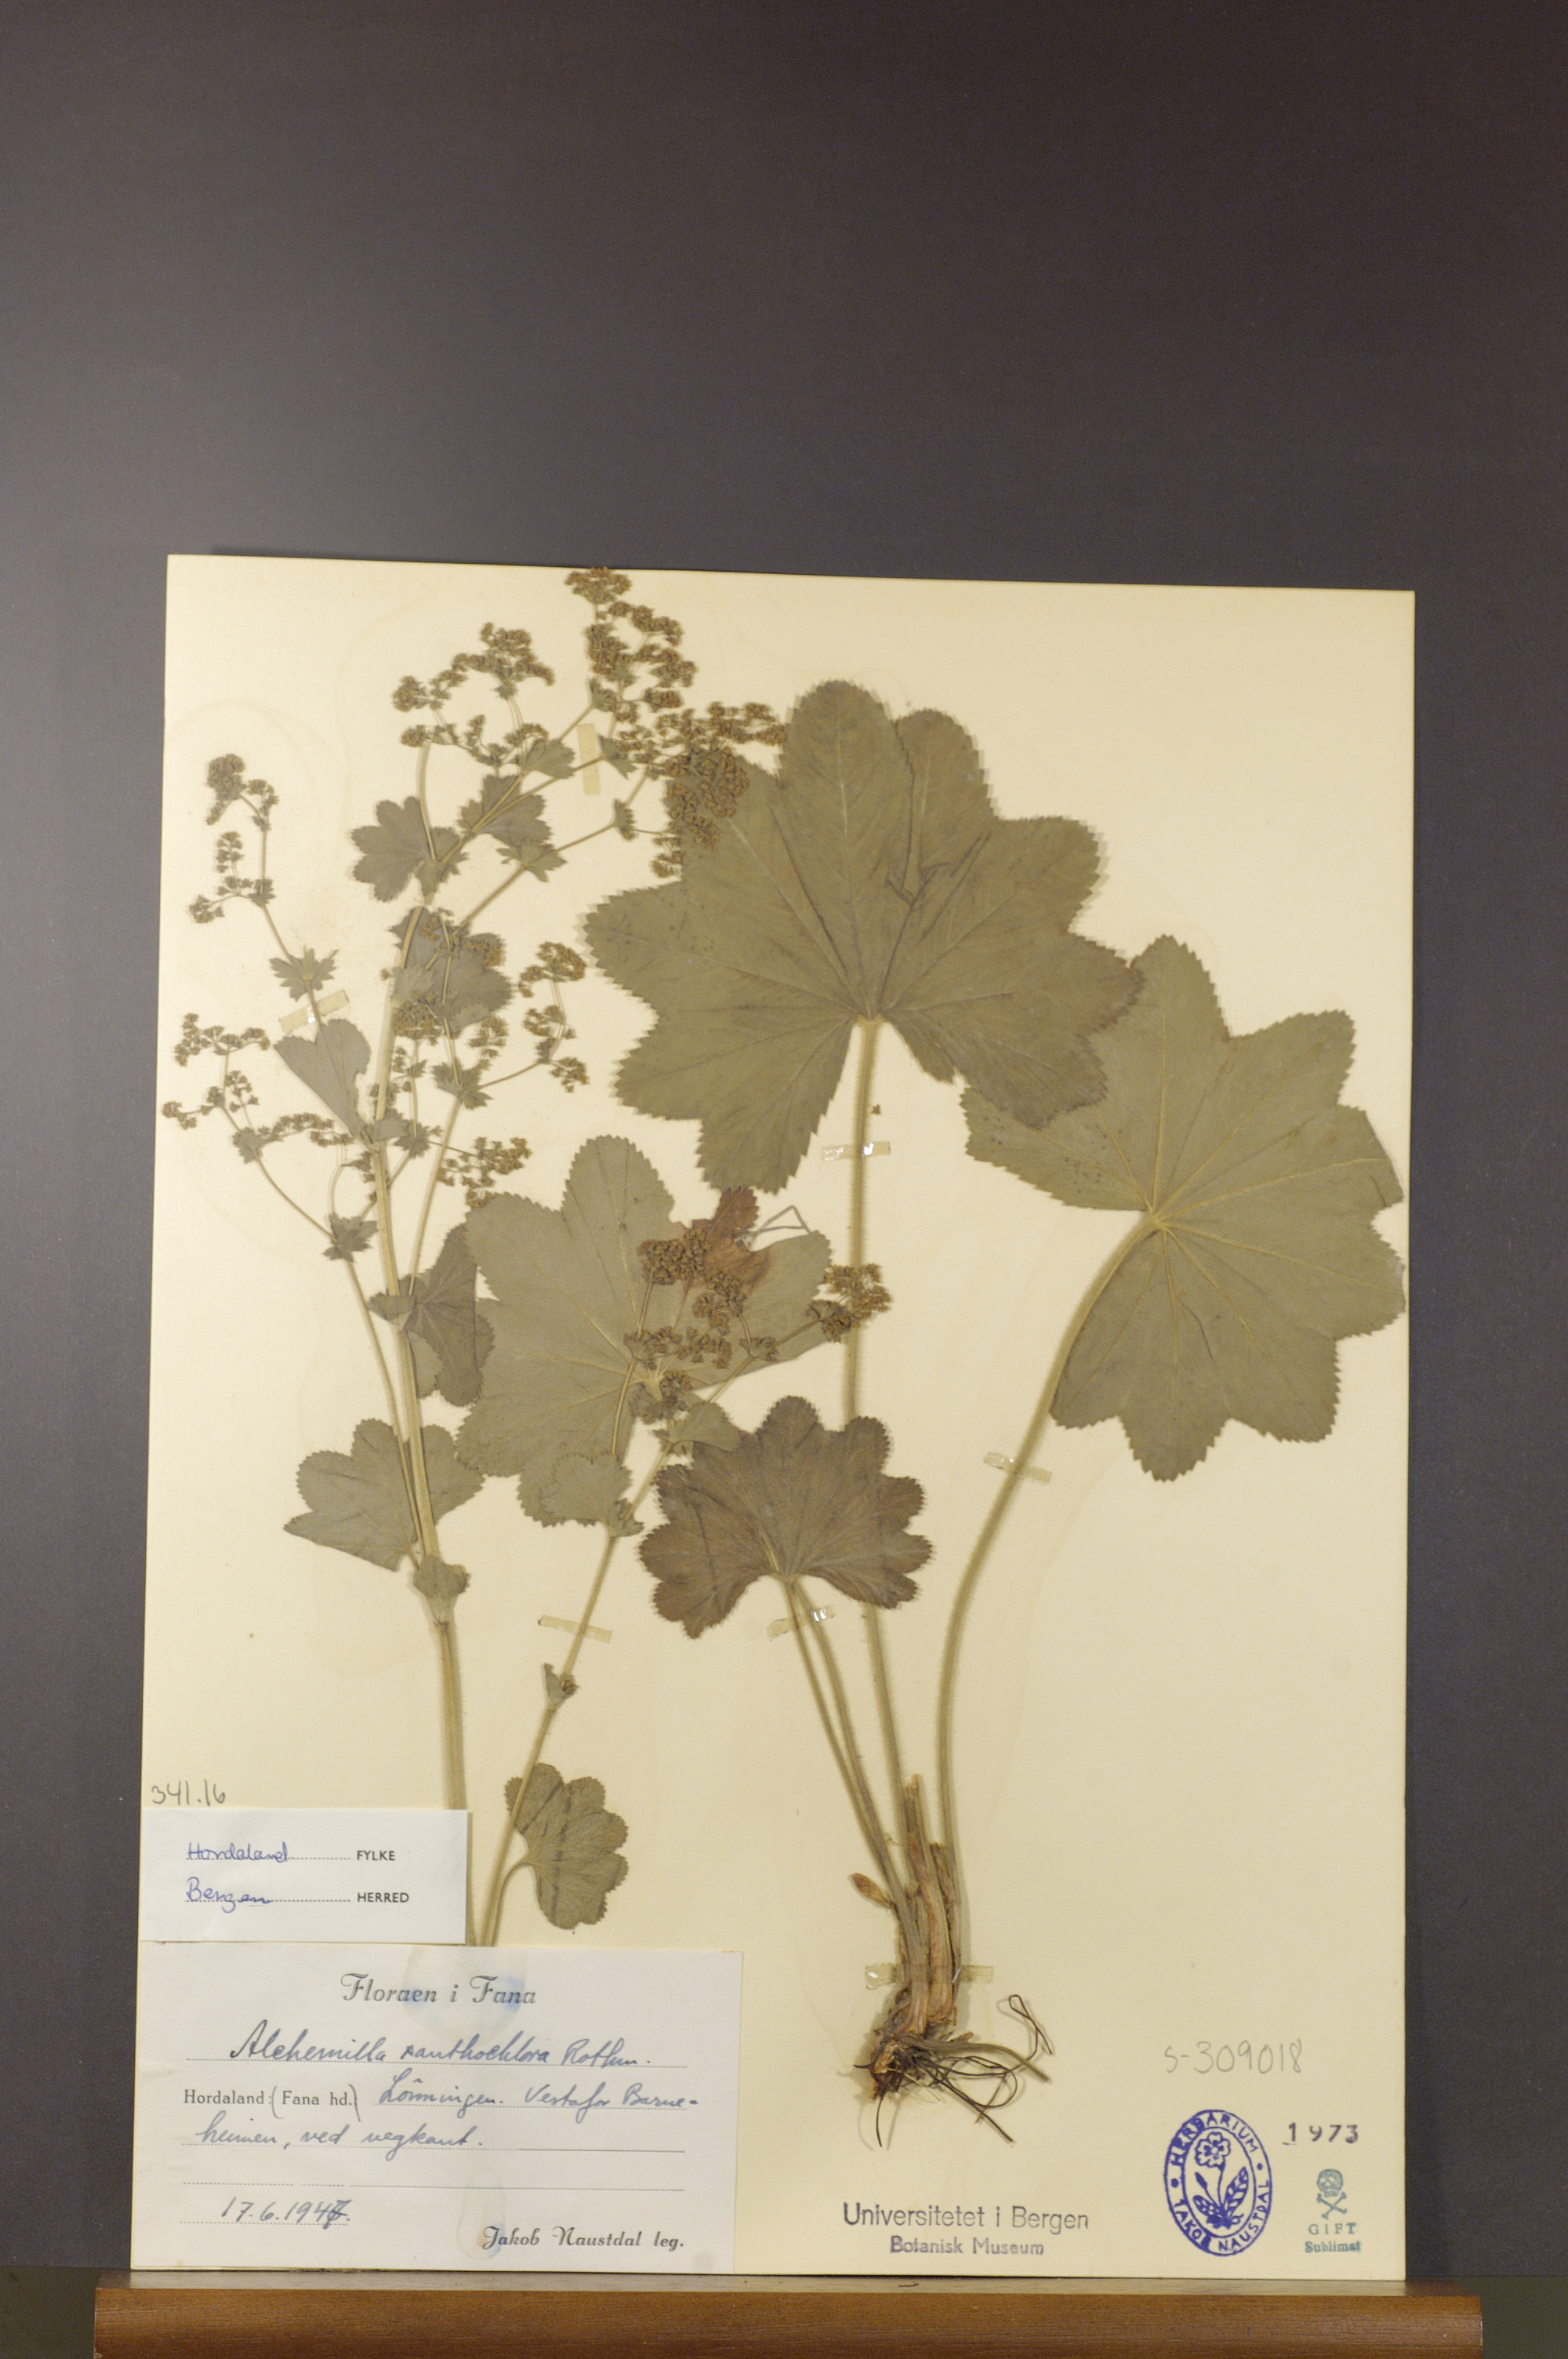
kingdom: Plantae
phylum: Tracheophyta
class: Magnoliopsida
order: Rosales
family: Rosaceae
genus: Alchemilla
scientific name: Alchemilla xanthochlora
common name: Intermediate lady's-mantle
